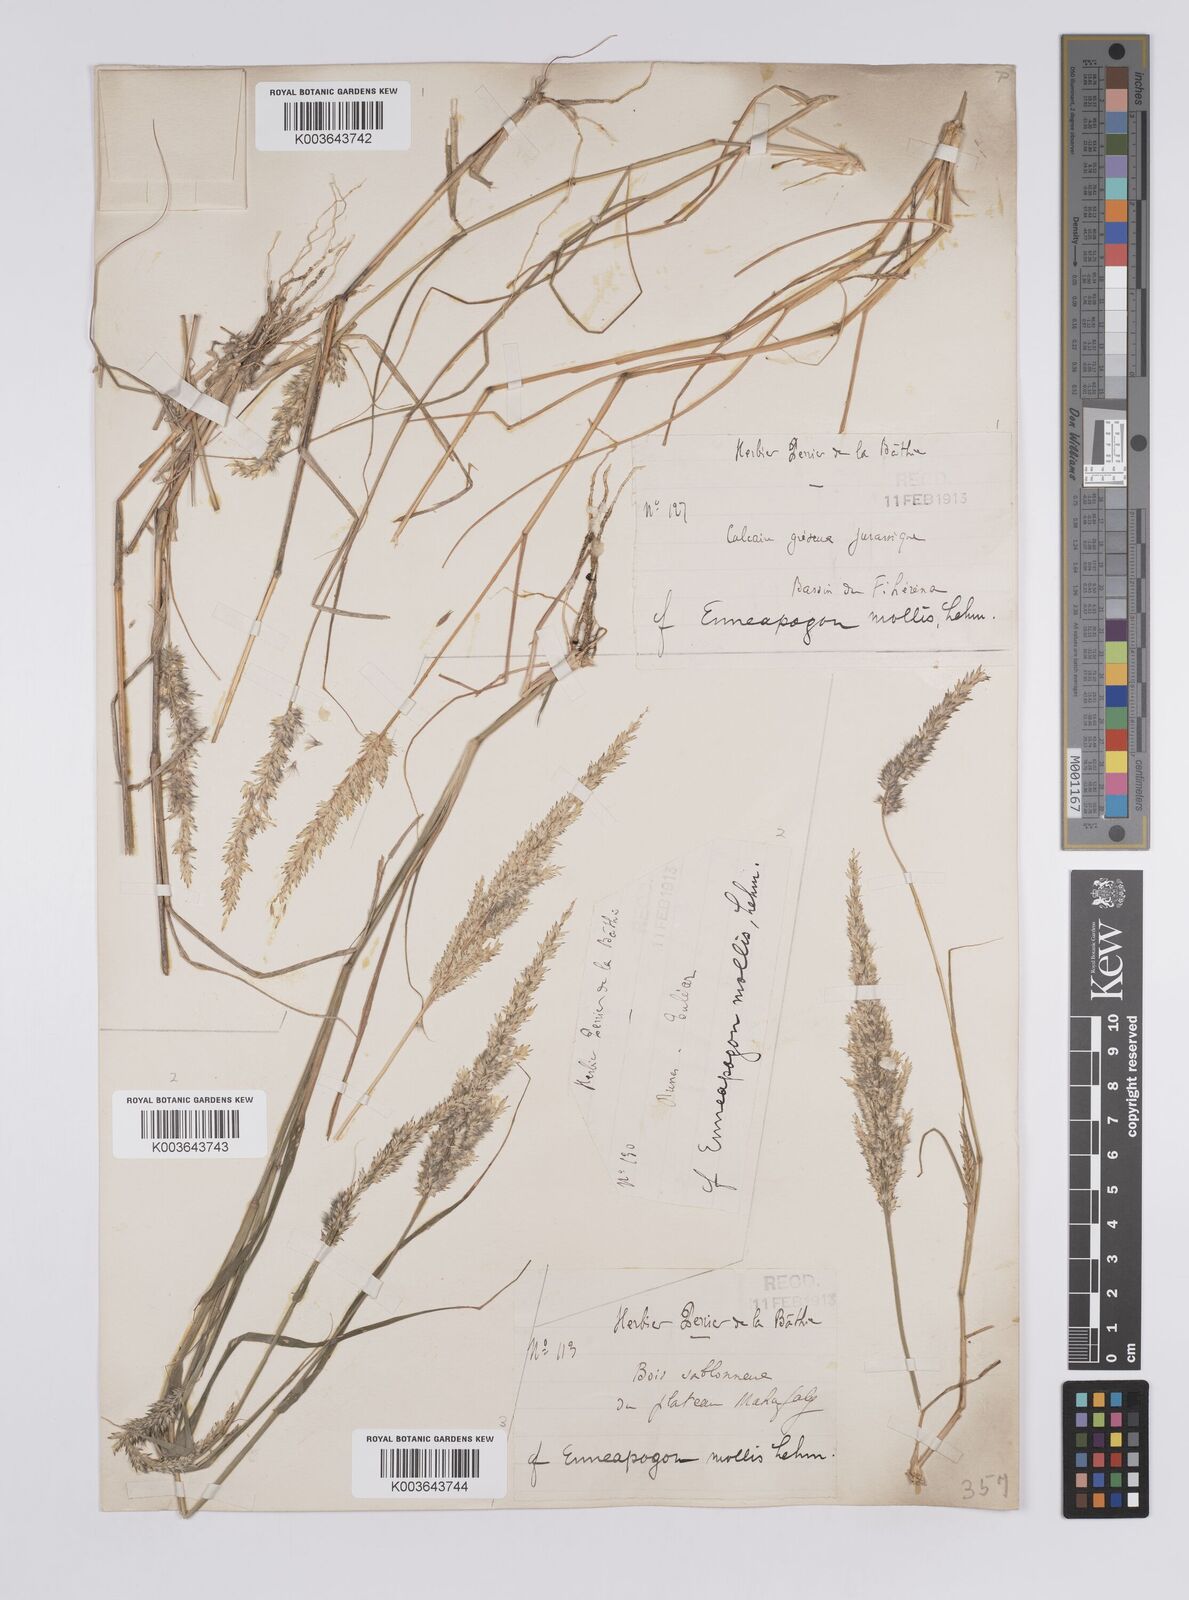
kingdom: Plantae
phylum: Tracheophyta
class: Liliopsida
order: Poales
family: Poaceae
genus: Enneapogon
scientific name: Enneapogon cenchroides
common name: Soft feather pappusgrass
